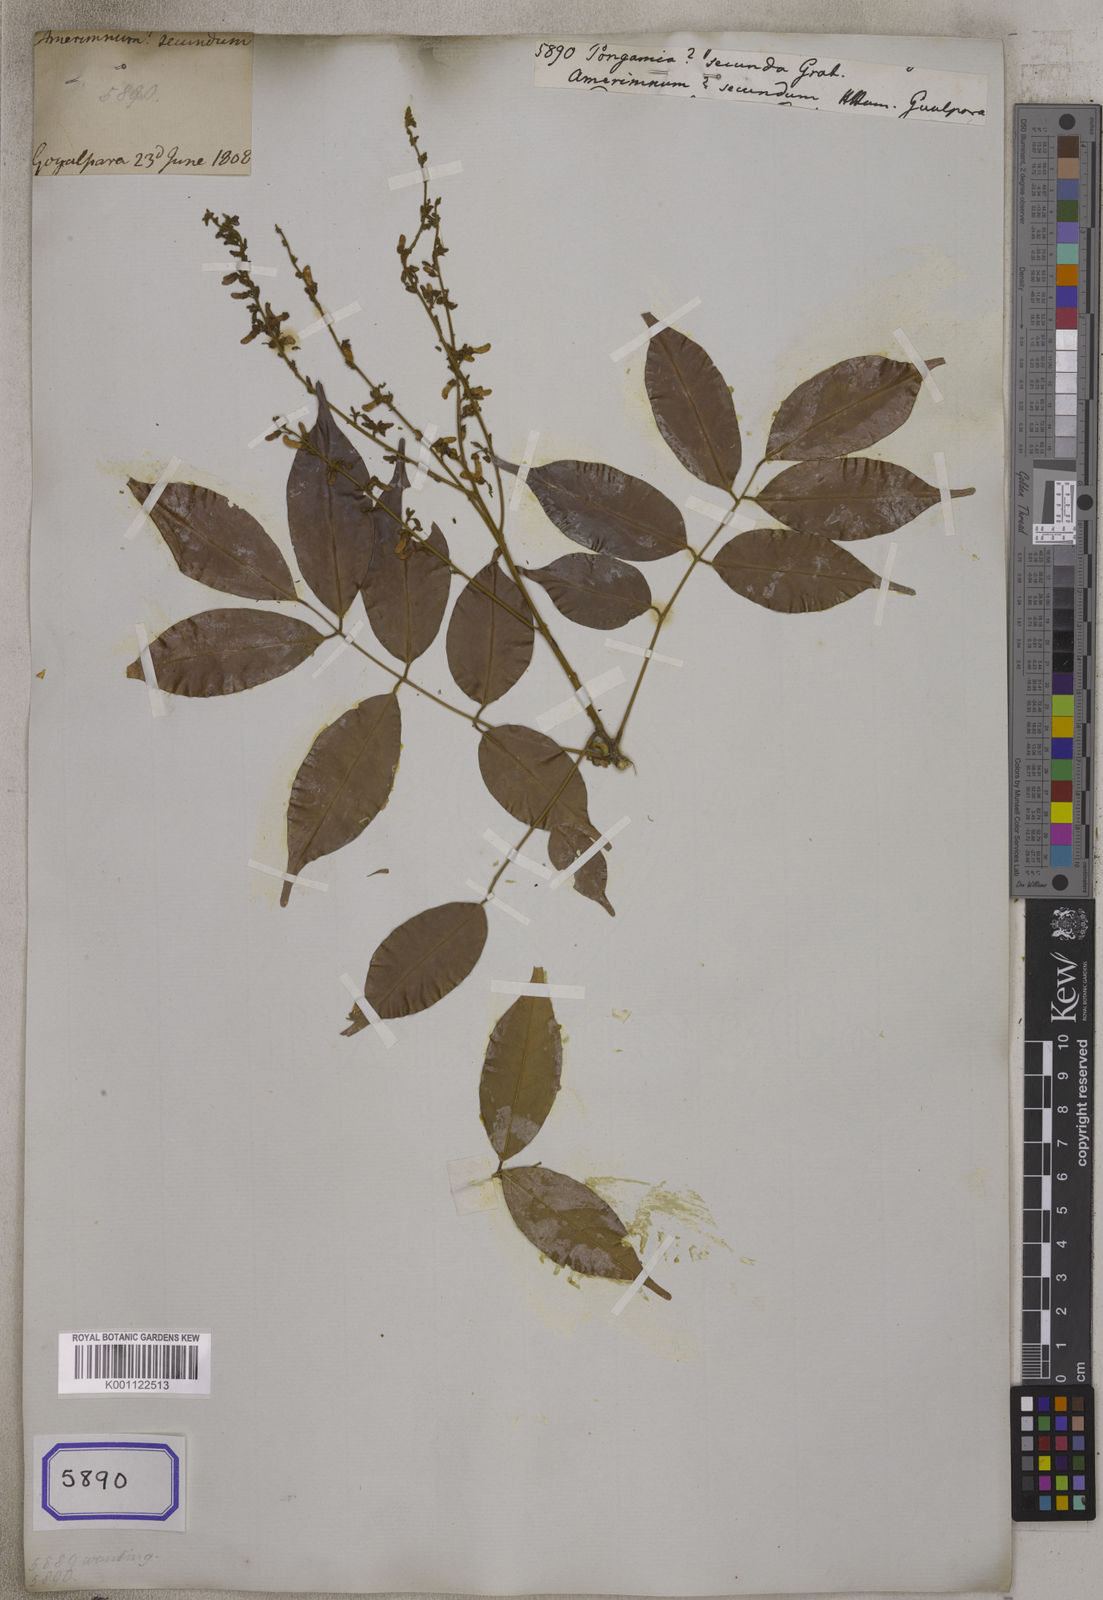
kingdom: Plantae
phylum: Tracheophyta
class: Magnoliopsida
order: Fabales
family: Fabaceae
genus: Derris
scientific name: Derris secunda
